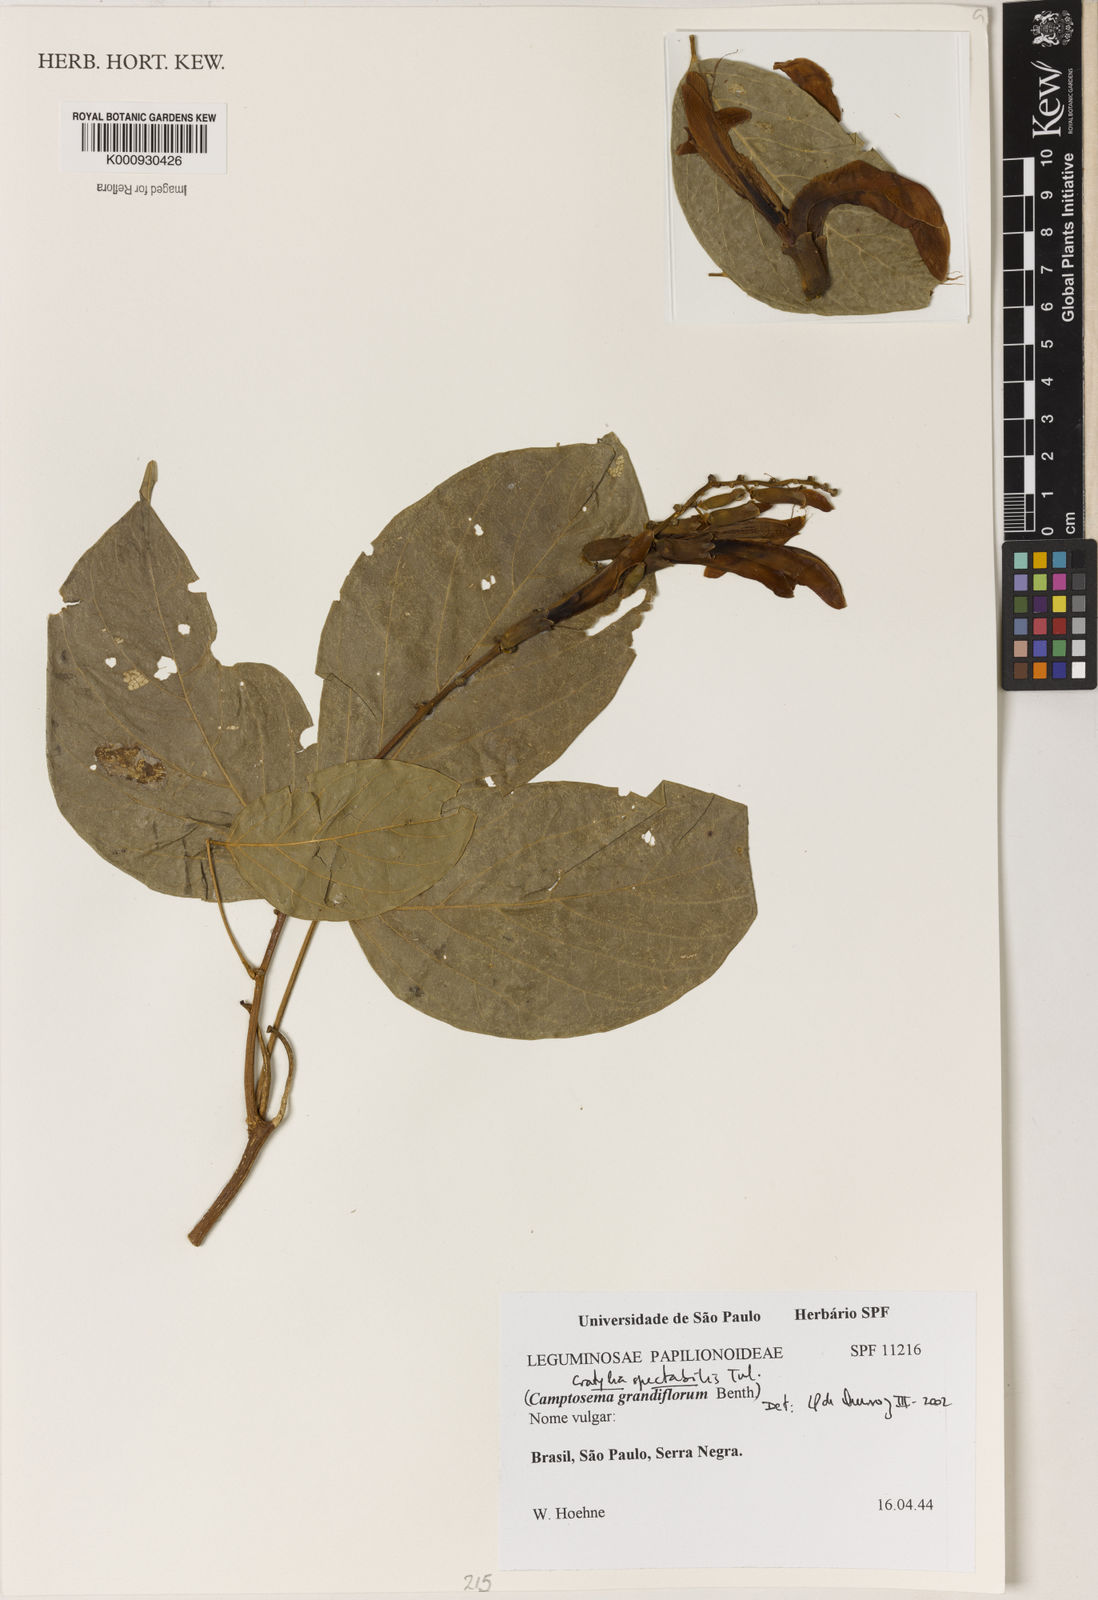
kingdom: Plantae
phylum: Tracheophyta
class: Magnoliopsida
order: Fabales
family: Fabaceae
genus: Camptosema
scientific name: Camptosema spectabile
